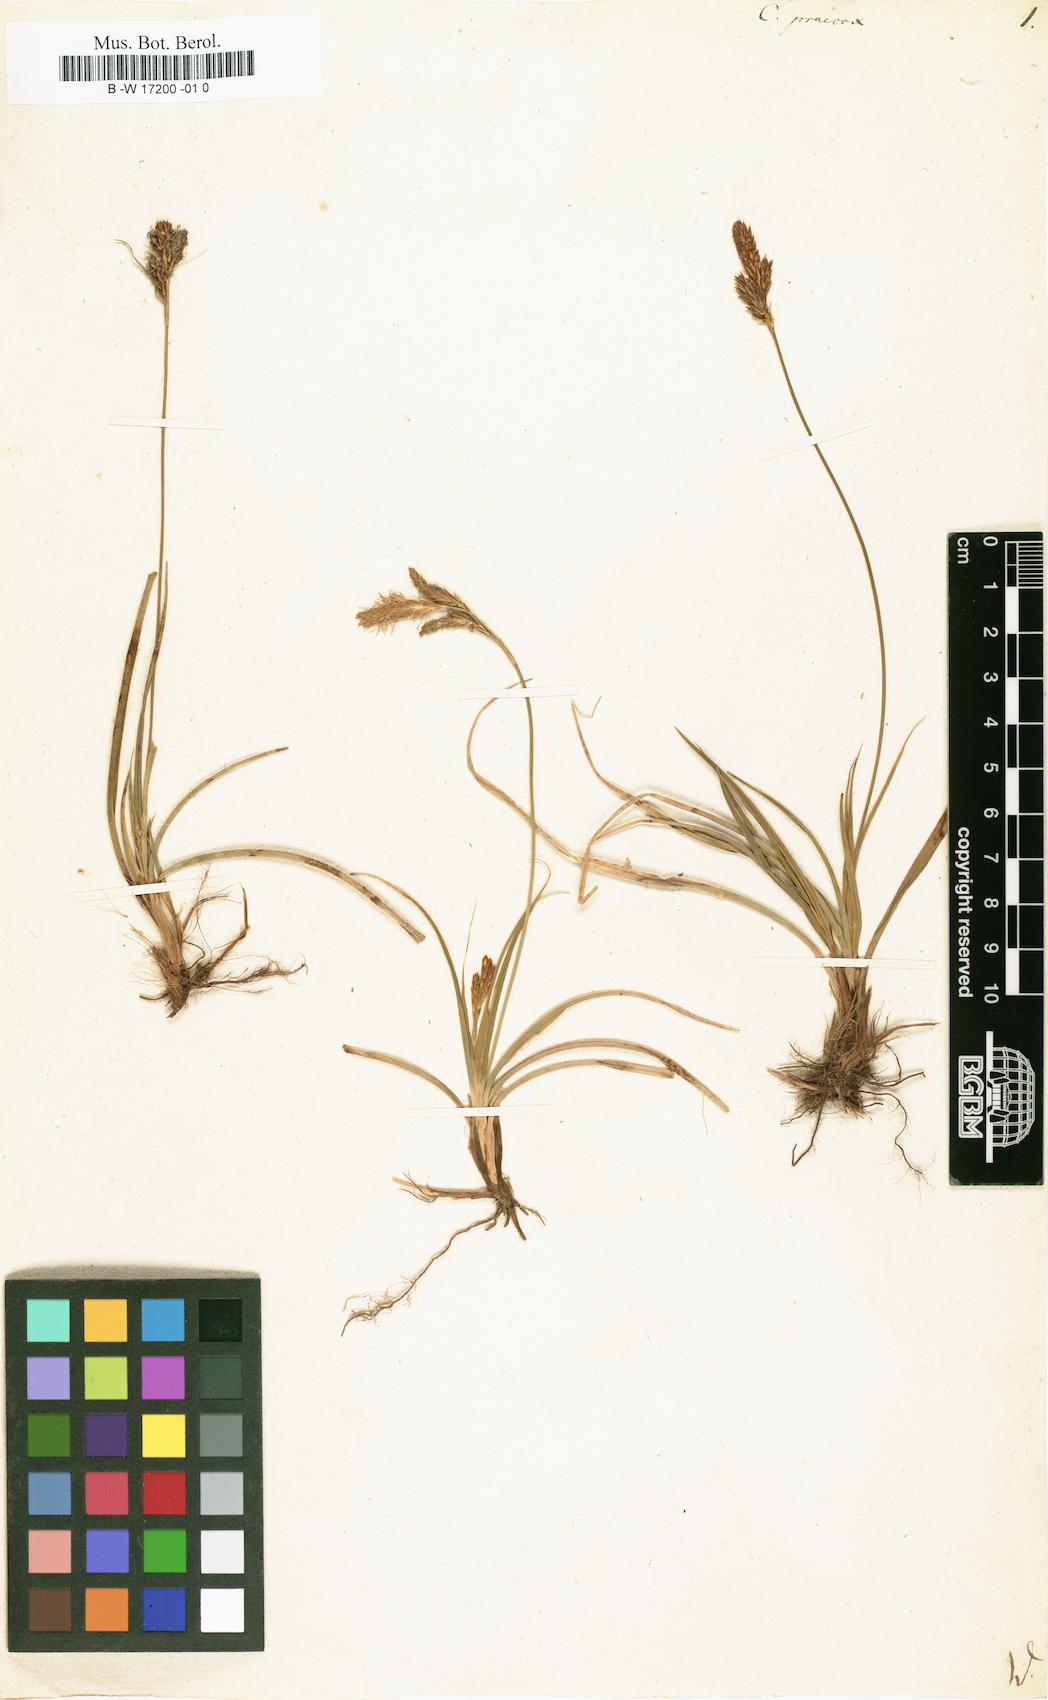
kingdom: Plantae
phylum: Tracheophyta
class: Liliopsida
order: Poales
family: Cyperaceae
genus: Carex
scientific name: Carex praecox
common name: Early sedge
